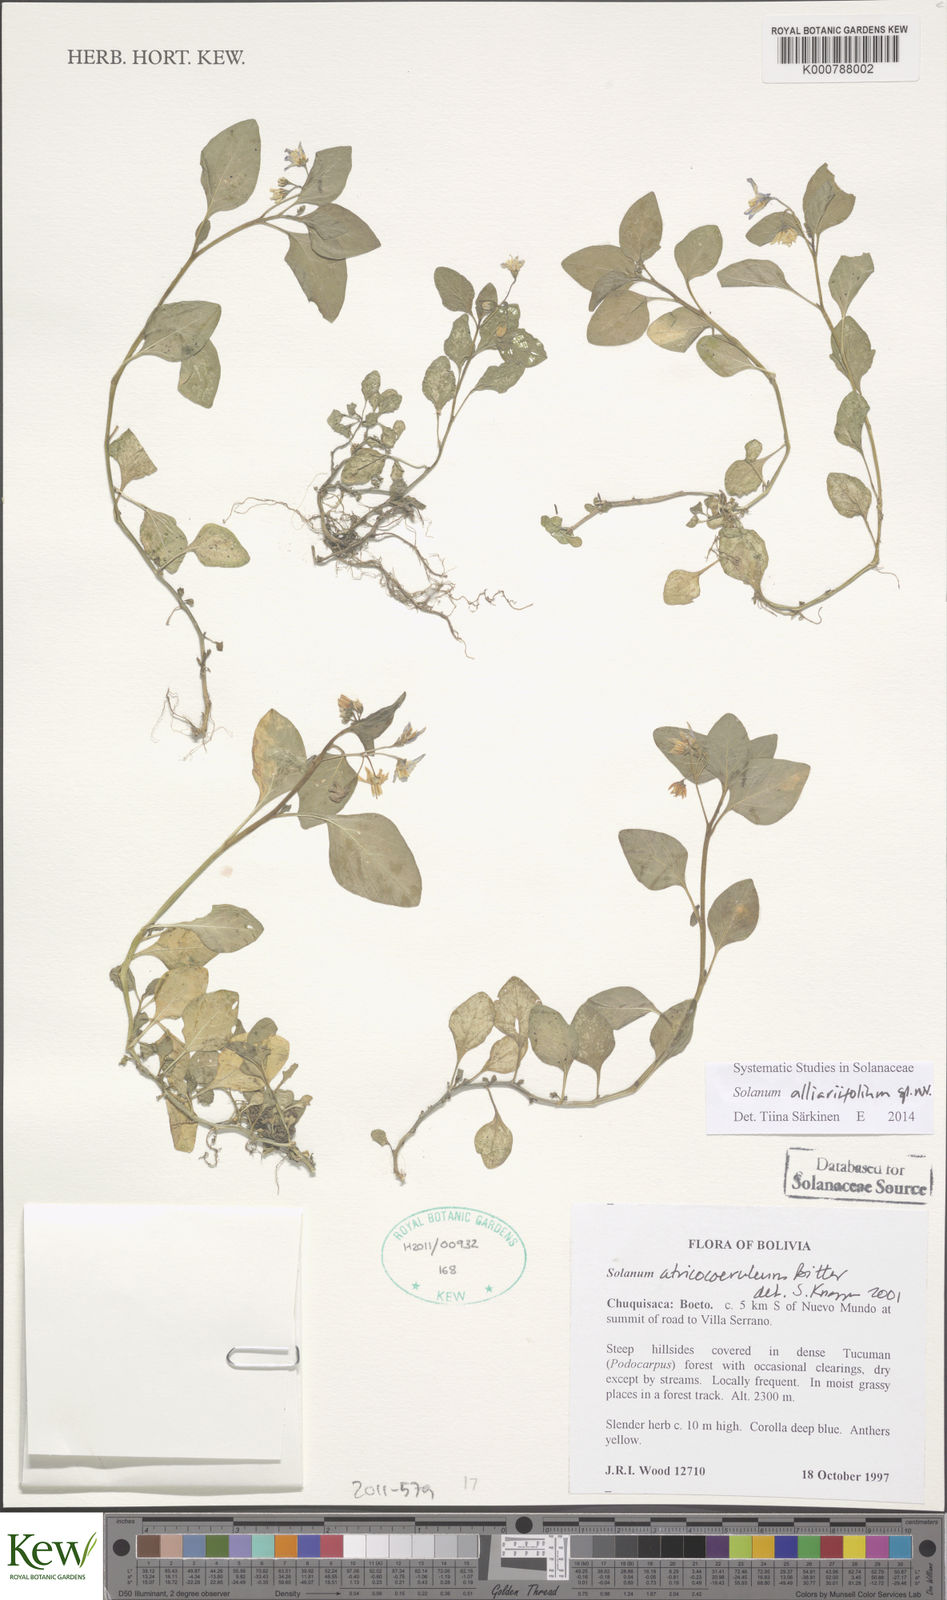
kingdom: Plantae
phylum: Tracheophyta
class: Magnoliopsida
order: Solanales
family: Solanaceae
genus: Solanum
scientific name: Solanum alliariifolium
